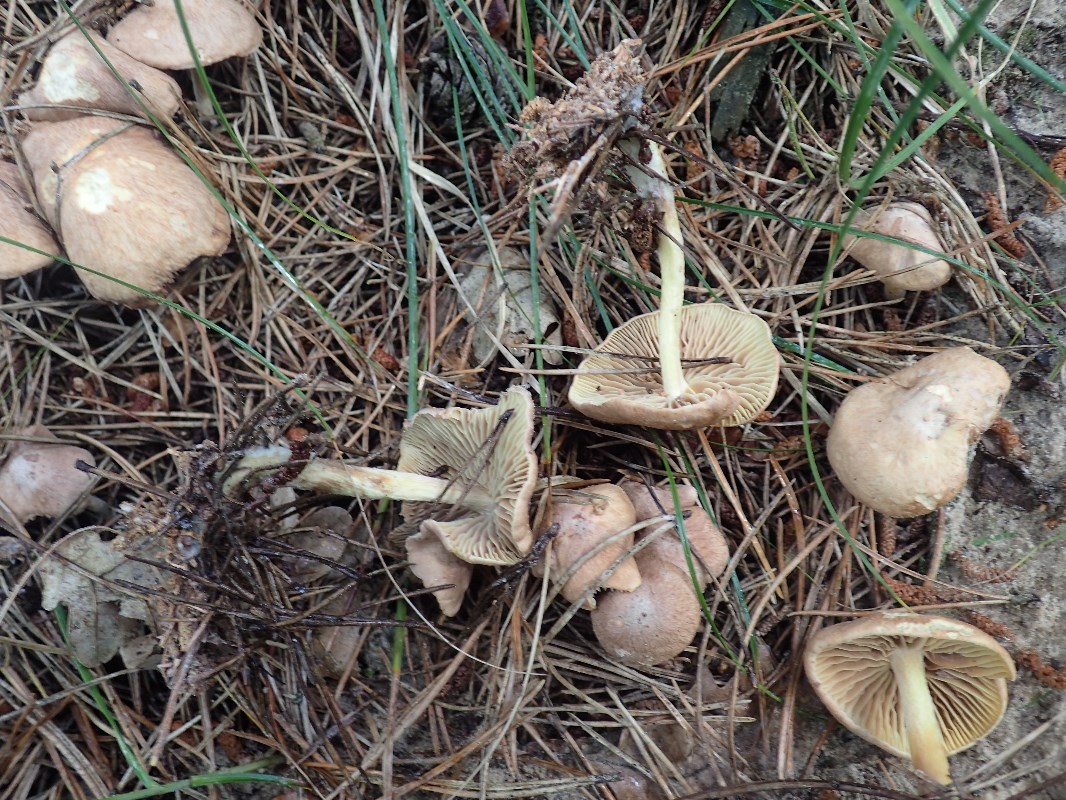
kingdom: Fungi
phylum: Basidiomycota
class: Agaricomycetes
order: Agaricales
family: Omphalotaceae
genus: Collybiopsis
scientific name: Collybiopsis peronata
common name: bestøvlet fladhat
